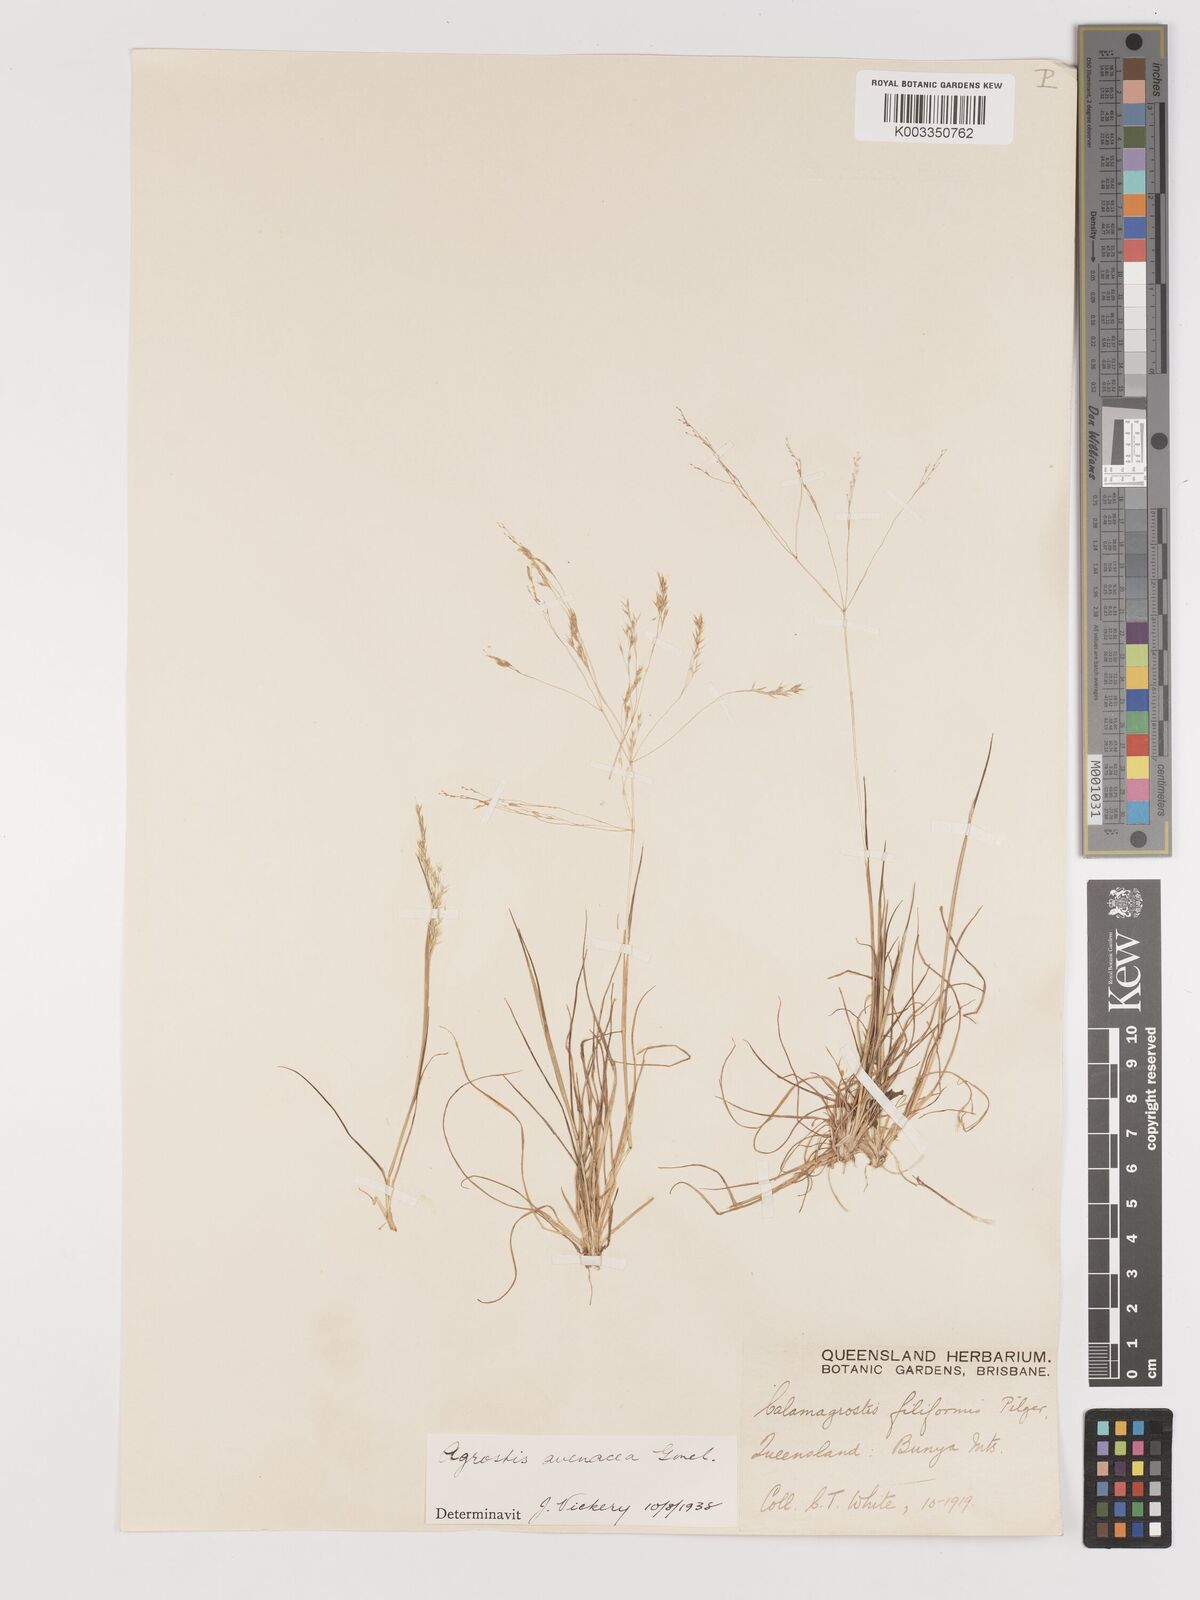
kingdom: Plantae
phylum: Tracheophyta
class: Liliopsida
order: Poales
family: Poaceae
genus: Lachnagrostis
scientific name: Lachnagrostis filiformis
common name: Bentgrass
